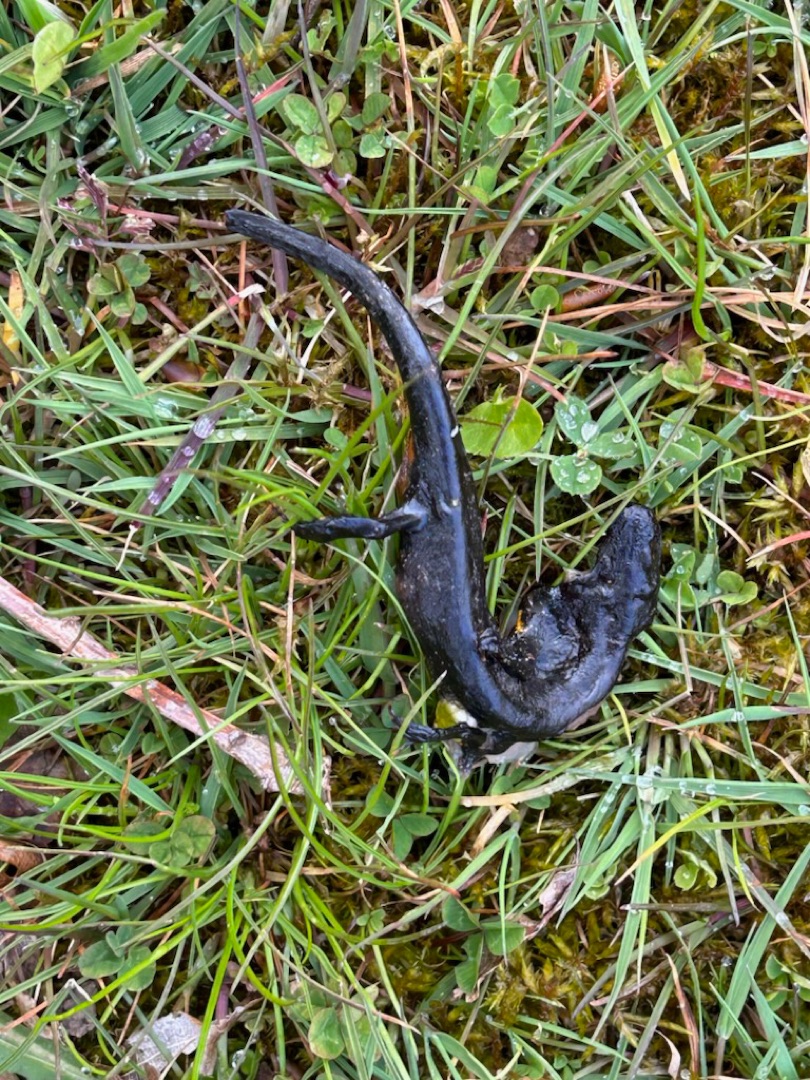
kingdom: Animalia
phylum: Chordata
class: Amphibia
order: Caudata
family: Salamandridae
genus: Triturus
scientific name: Triturus cristatus
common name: Stor vandsalamander
